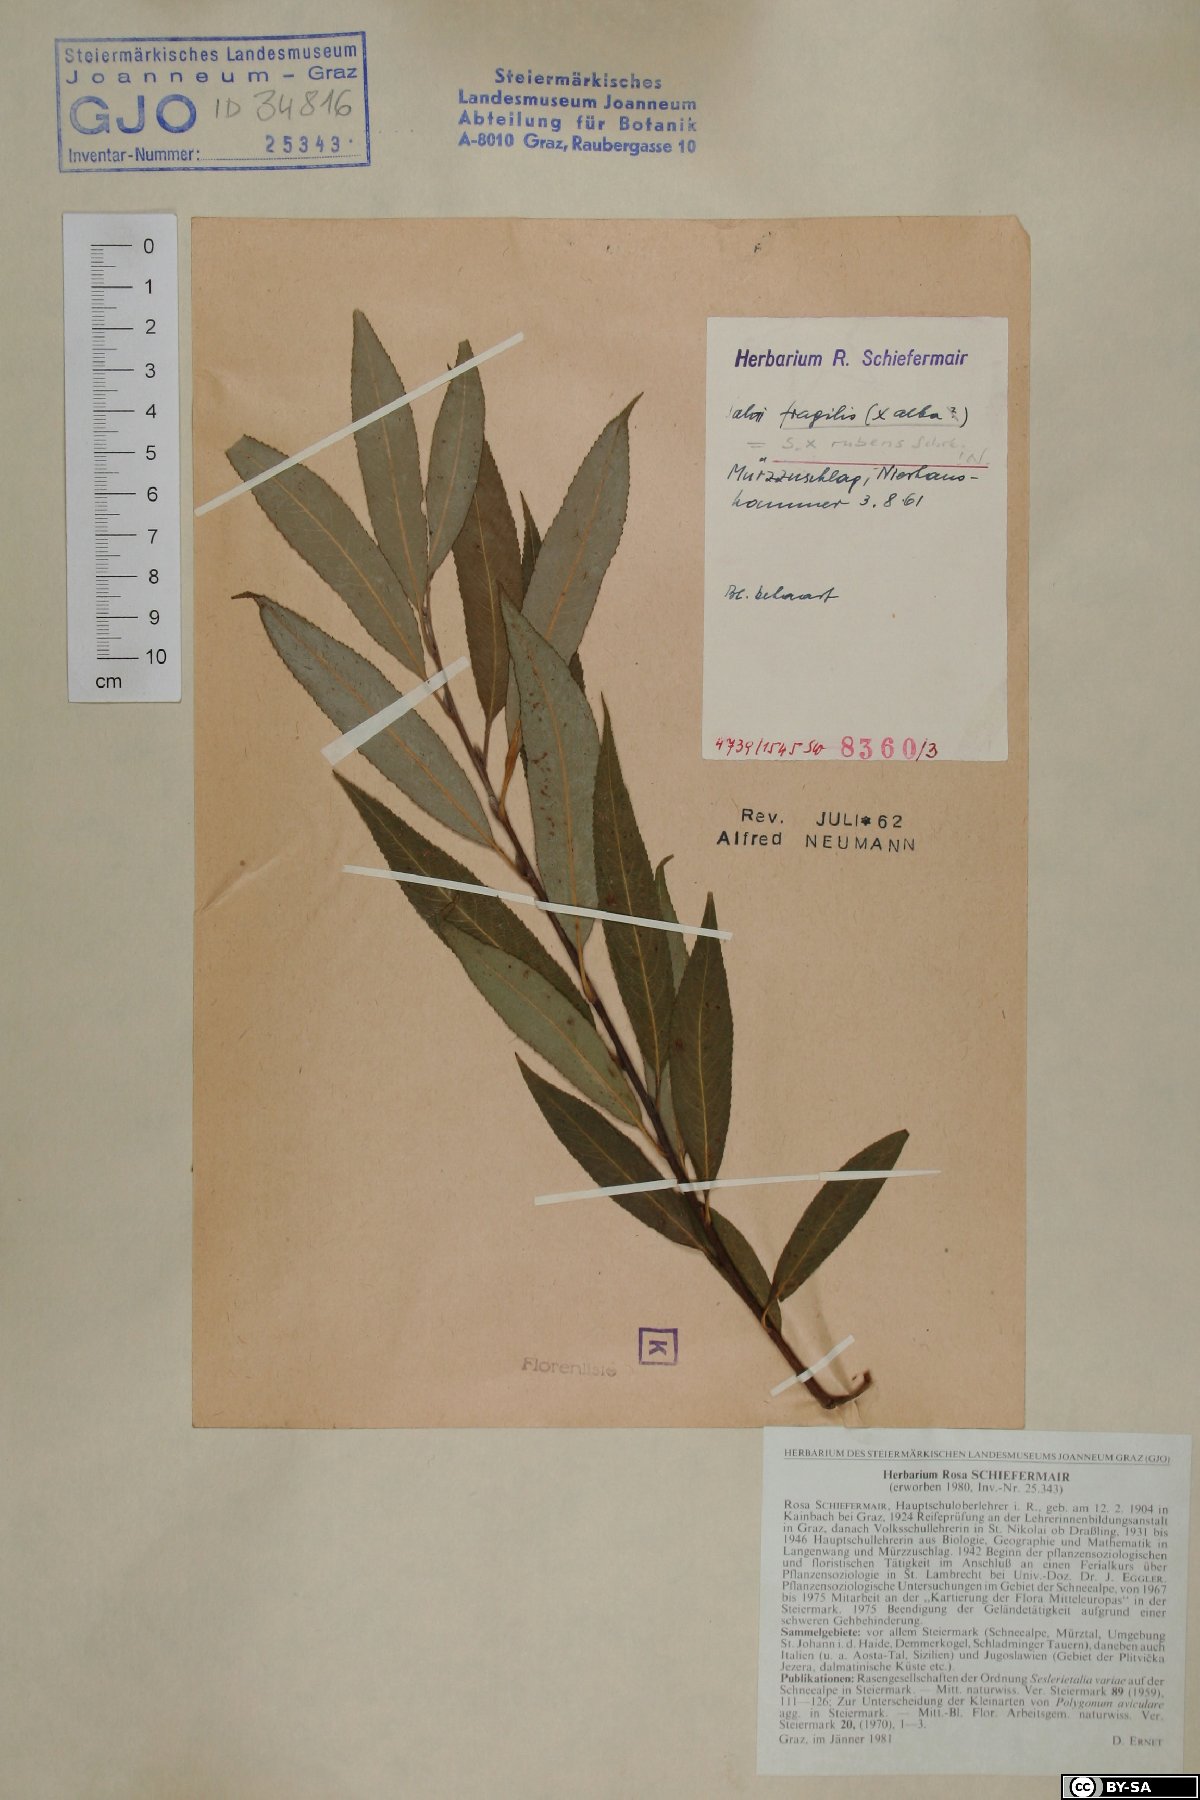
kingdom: Plantae
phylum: Tracheophyta
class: Magnoliopsida
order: Malpighiales
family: Salicaceae
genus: Salix
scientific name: Salix rubens
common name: Hybrid crack willow
